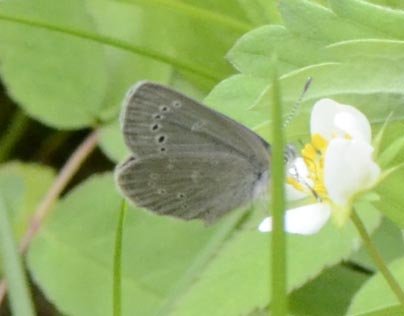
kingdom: Animalia
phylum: Arthropoda
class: Insecta
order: Lepidoptera
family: Lycaenidae
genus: Glaucopsyche
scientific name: Glaucopsyche lygdamus
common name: Silvery Blue
